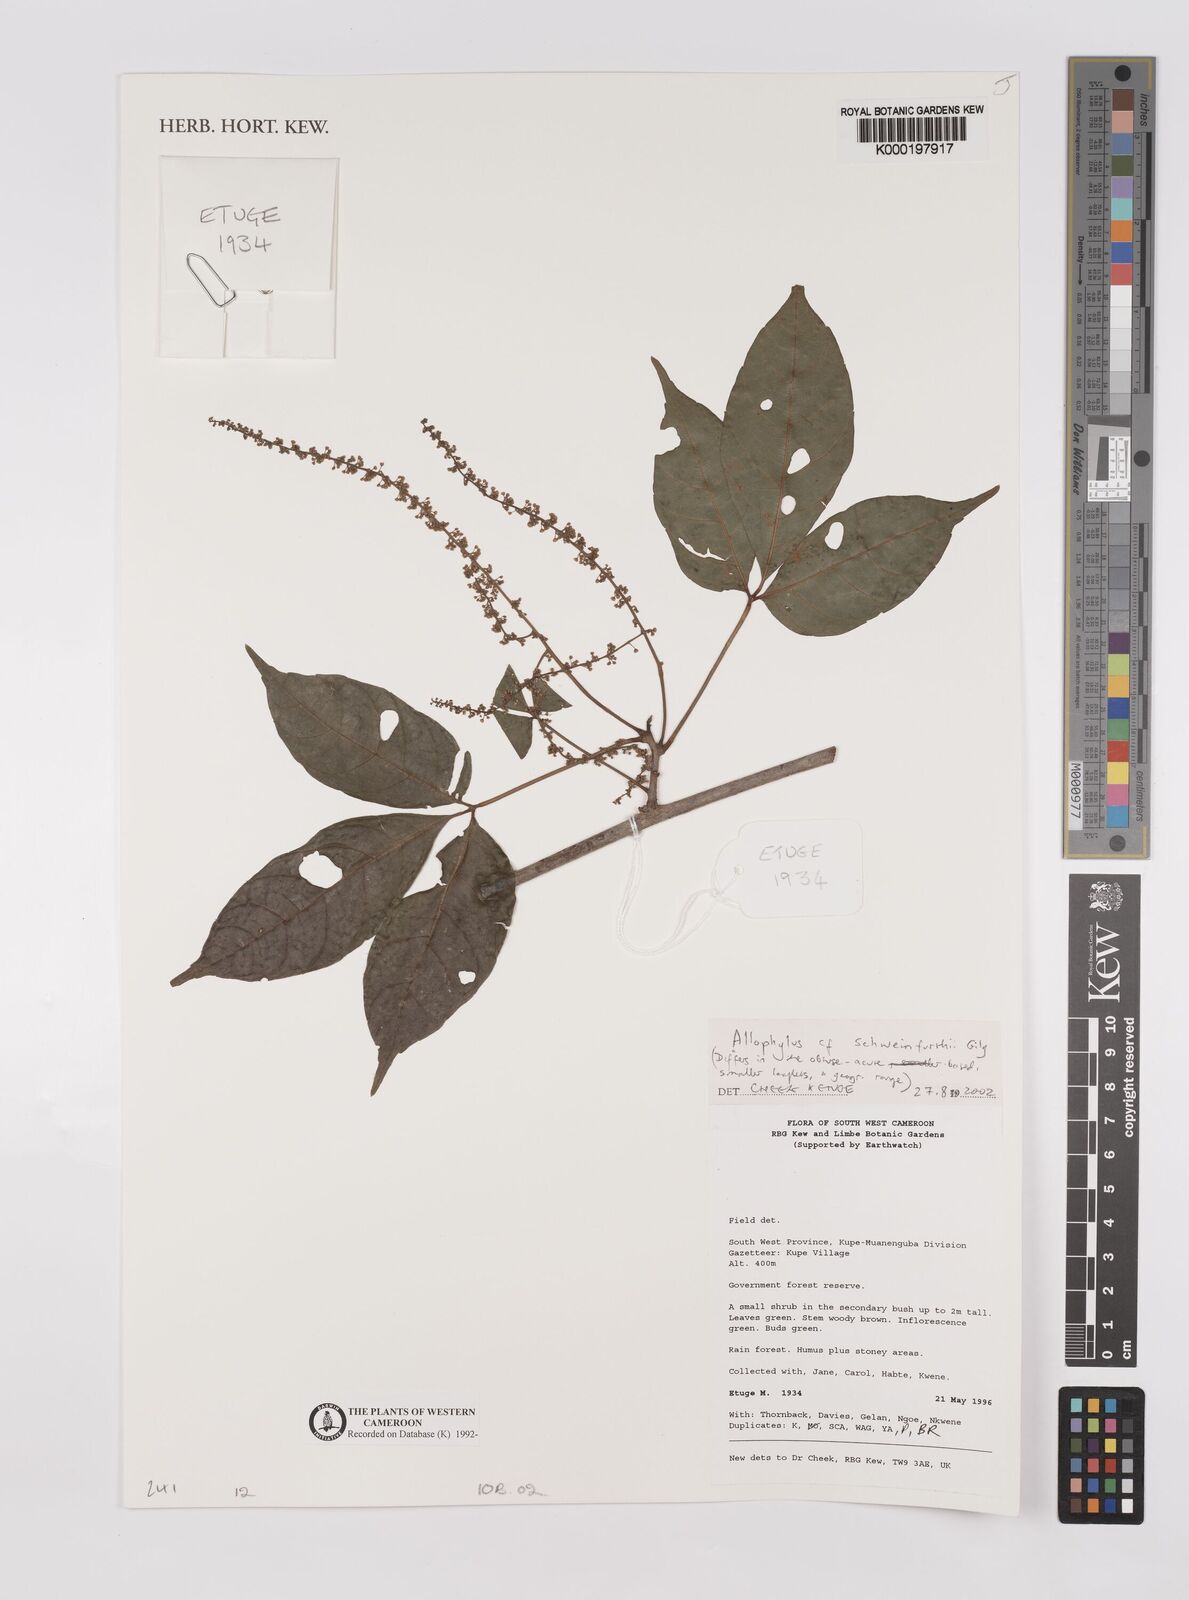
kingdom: Plantae
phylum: Tracheophyta
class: Magnoliopsida
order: Sapindales
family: Sapindaceae
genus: Allophylus
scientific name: Allophylus schweinfurthii
